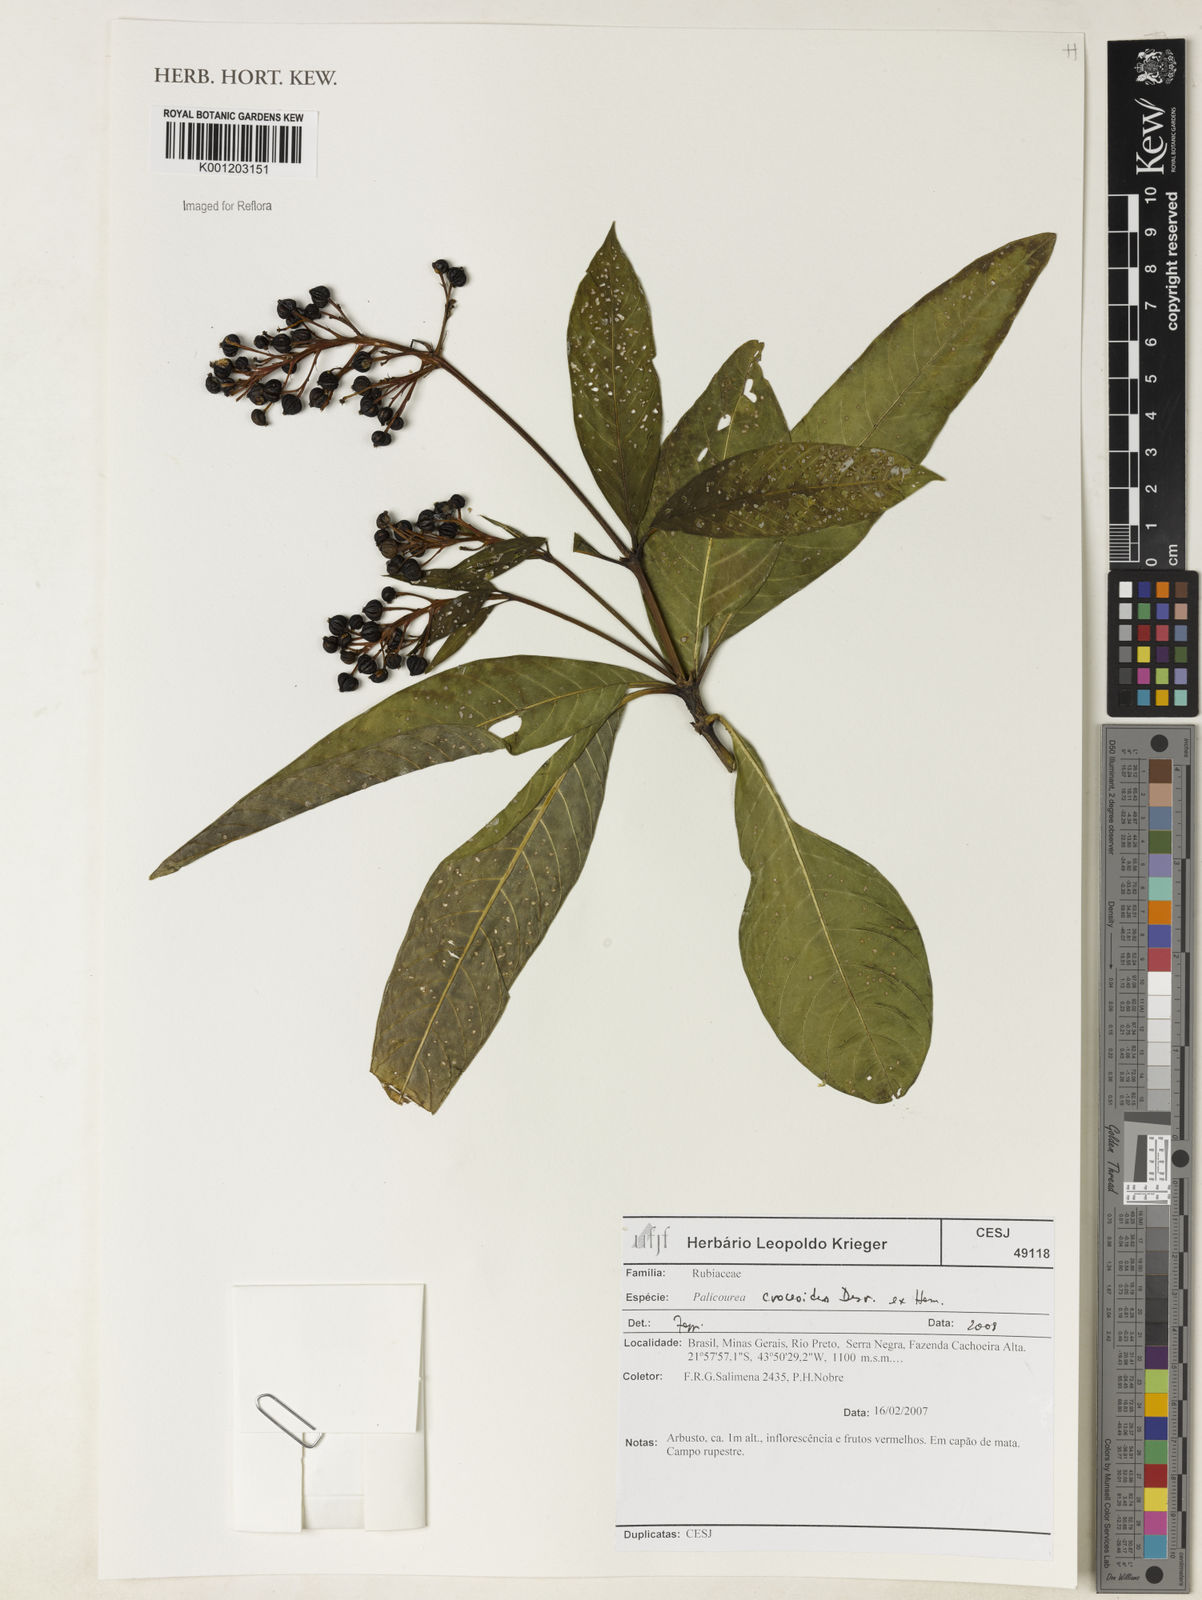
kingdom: Plantae
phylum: Tracheophyta
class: Magnoliopsida
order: Gentianales
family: Rubiaceae
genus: Palicourea
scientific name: Palicourea croceoides
